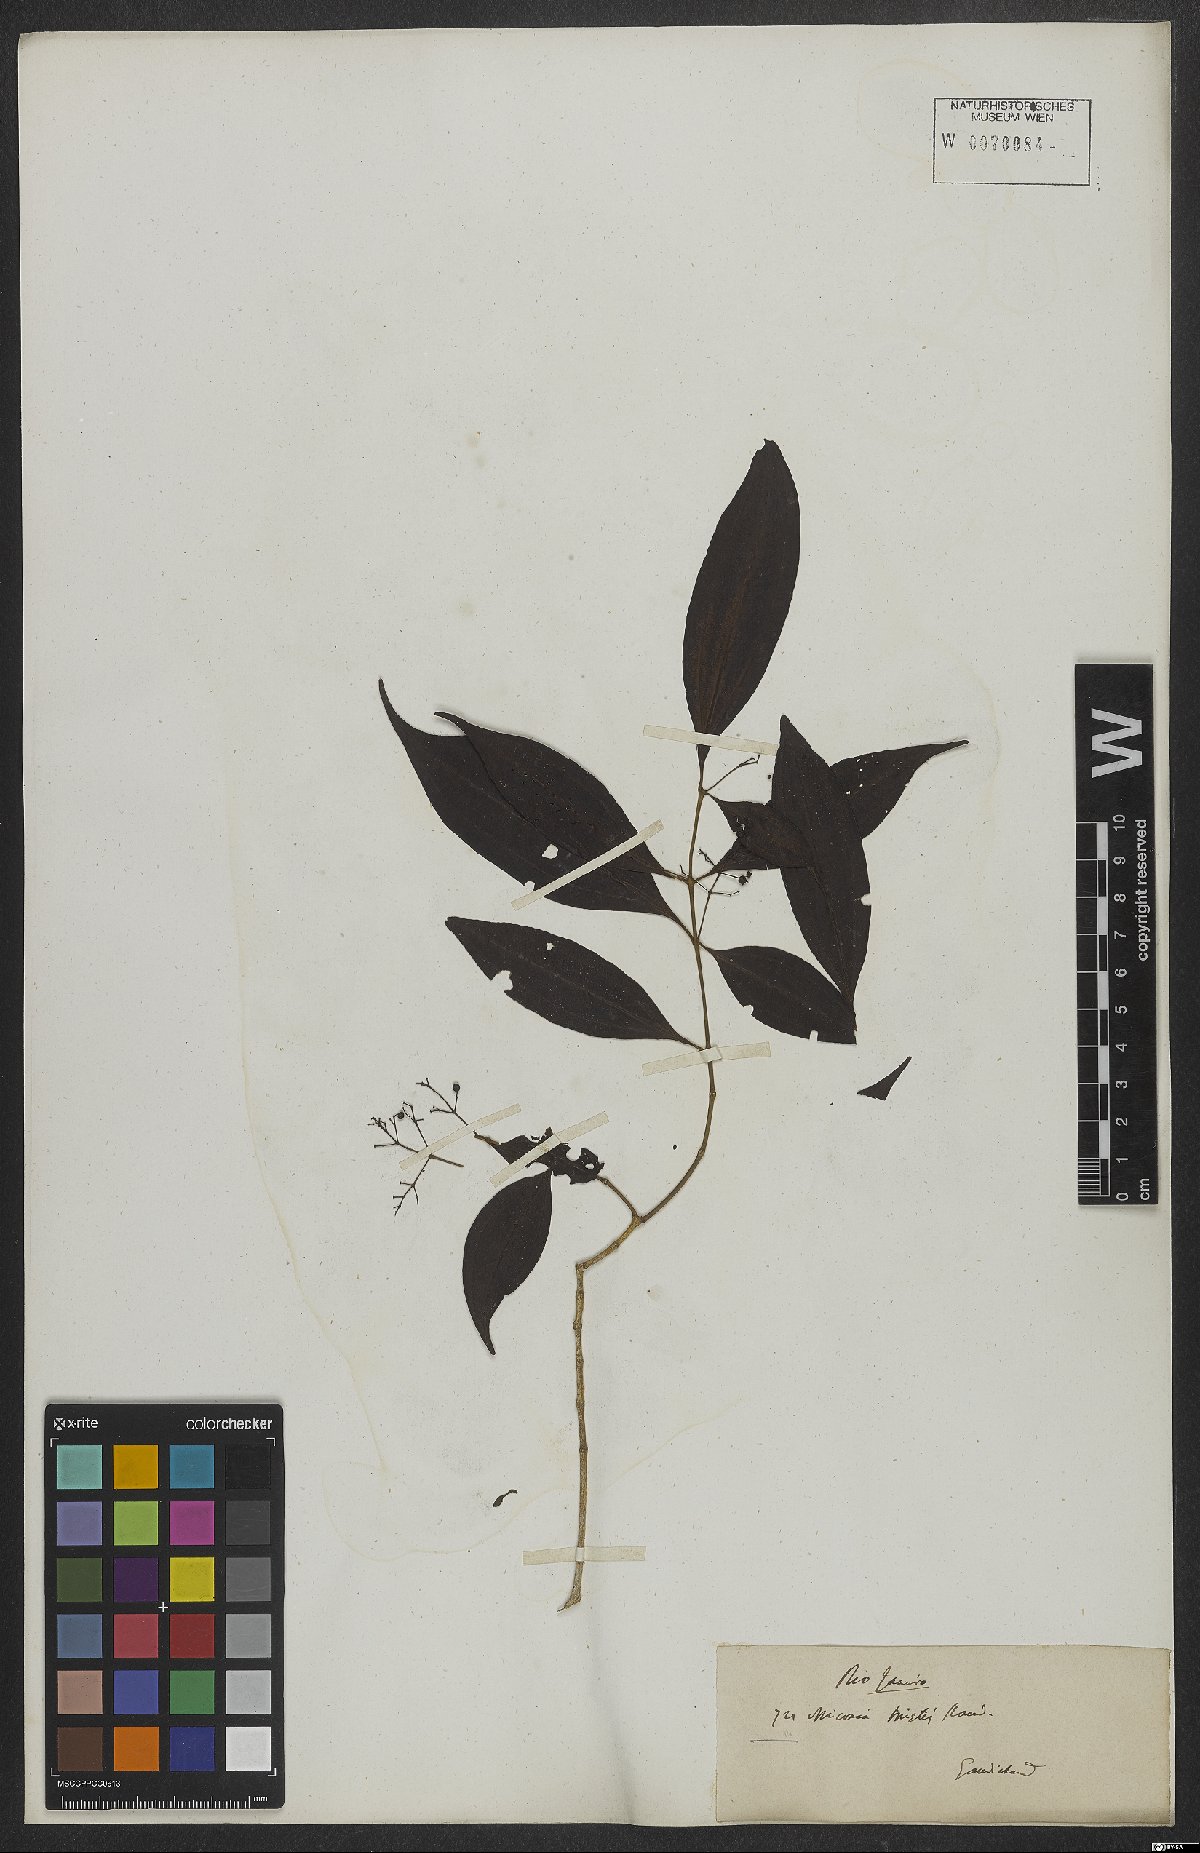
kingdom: Plantae
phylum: Tracheophyta
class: Magnoliopsida
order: Myrtales
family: Melastomataceae
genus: Miconia
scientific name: Miconia tristis
